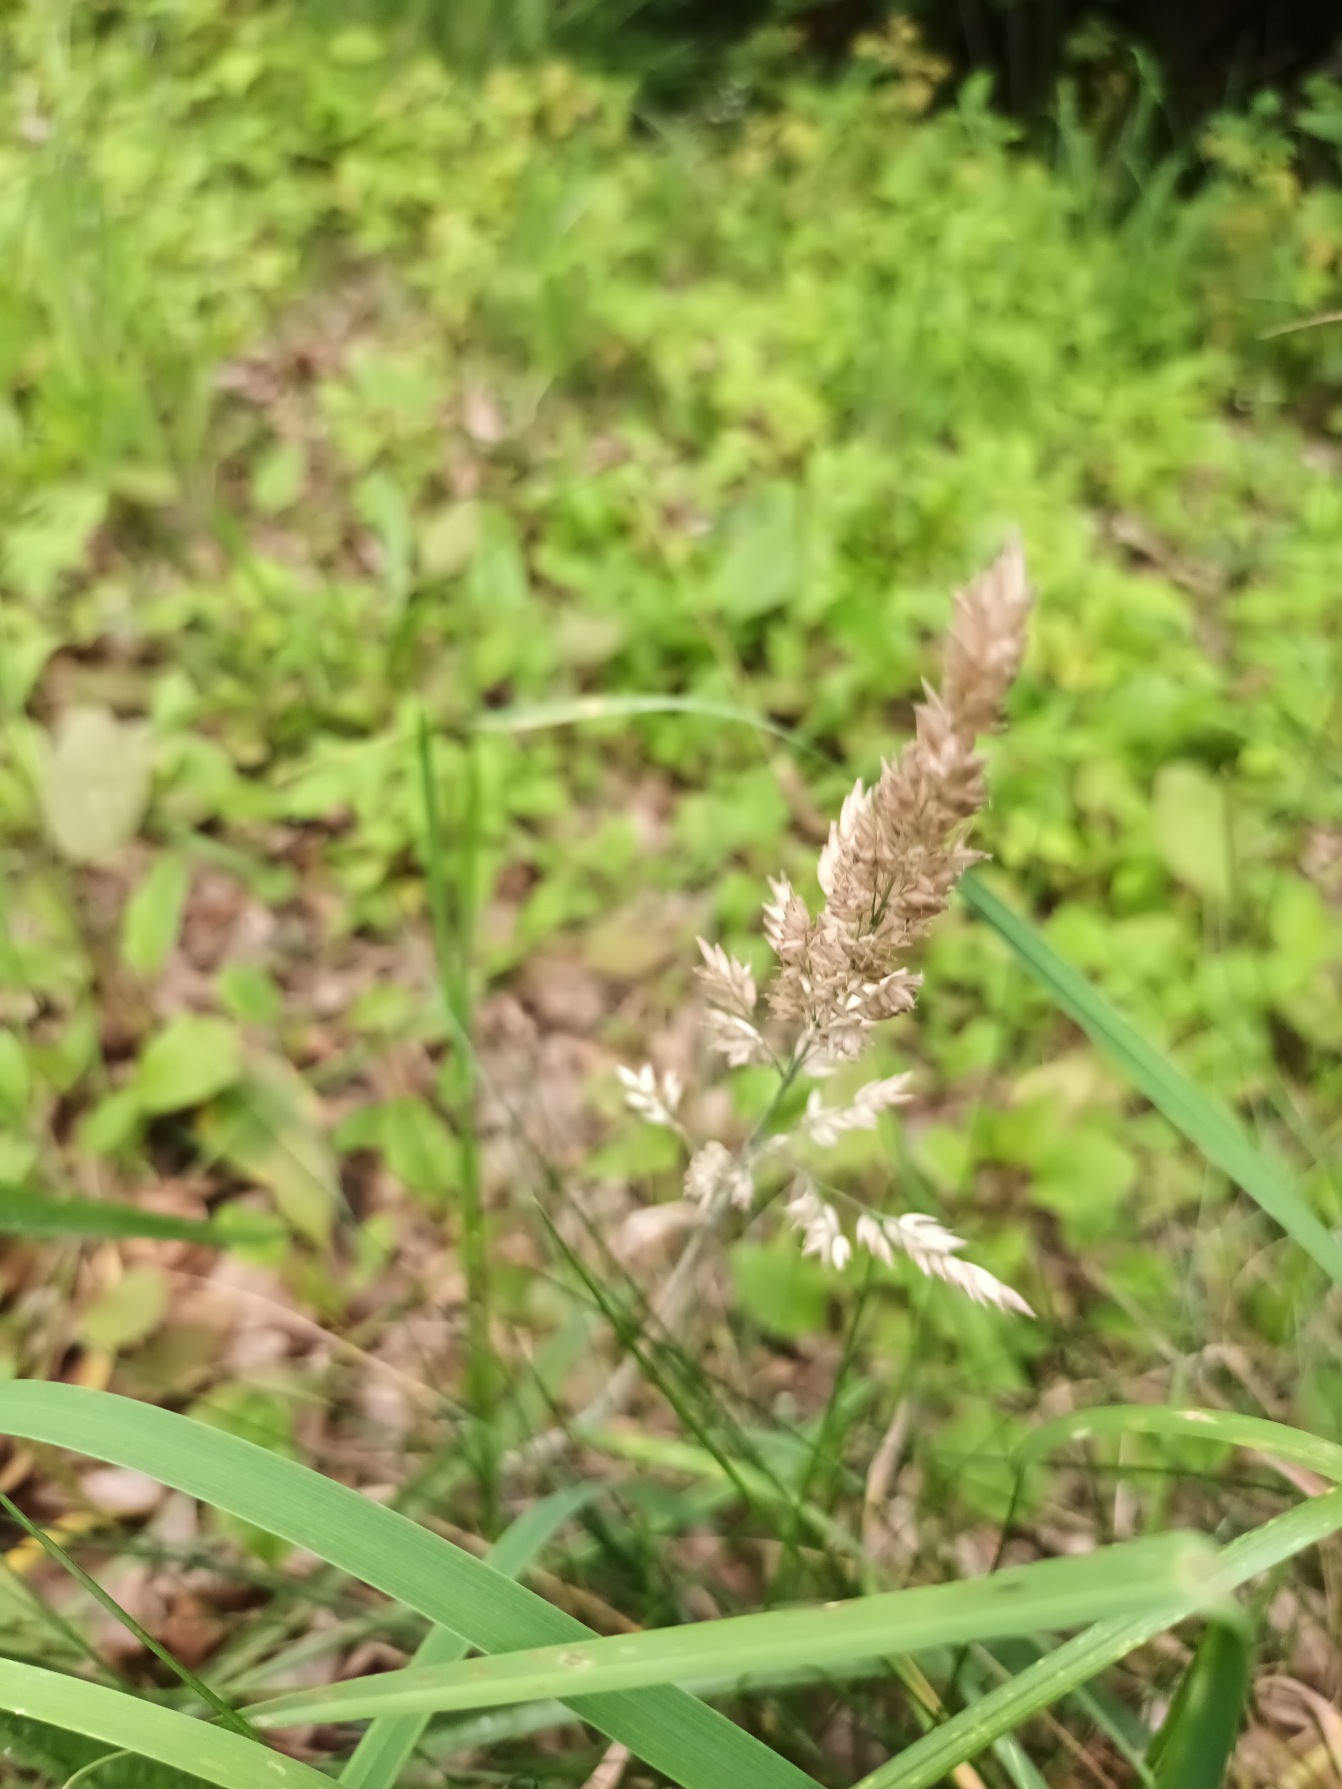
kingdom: Plantae
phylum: Tracheophyta
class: Liliopsida
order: Poales
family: Poaceae
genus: Holcus
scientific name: Holcus lanatus
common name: Fløjlsgræs
